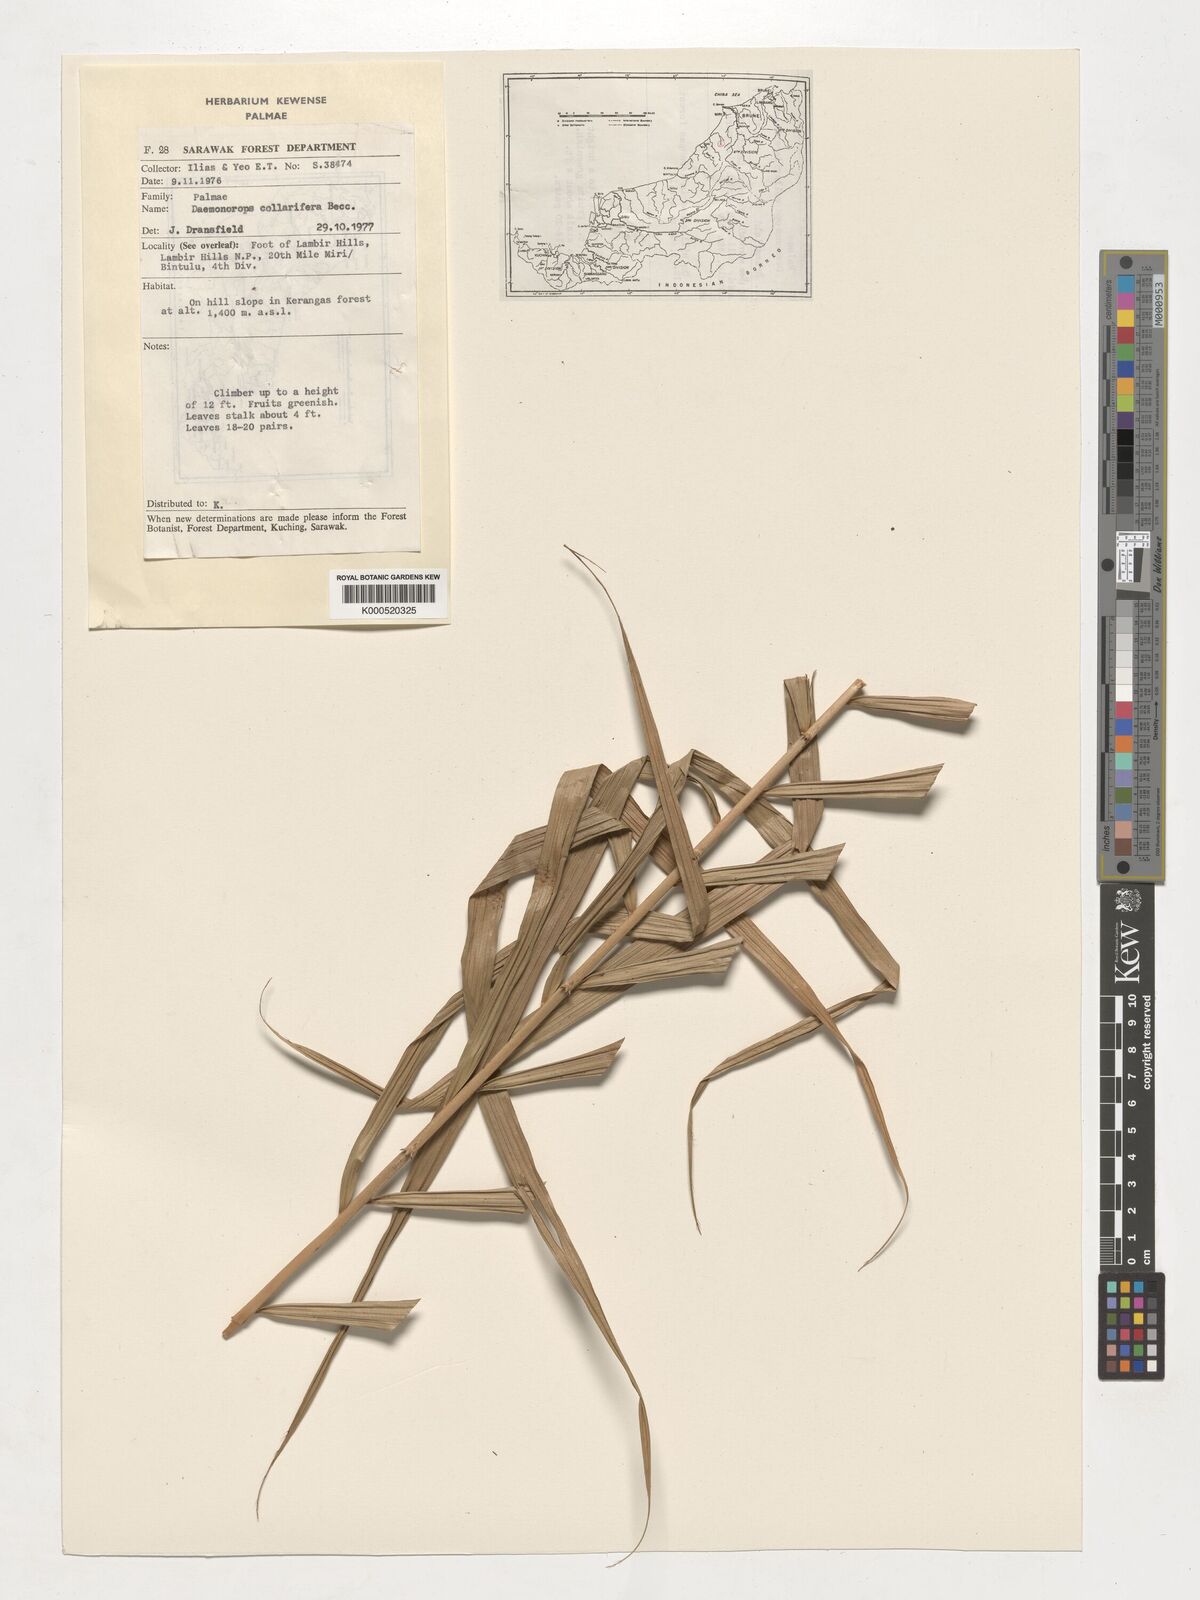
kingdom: Plantae
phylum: Tracheophyta
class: Liliopsida
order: Arecales
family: Arecaceae
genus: Calamus
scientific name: Calamus geniculatus
